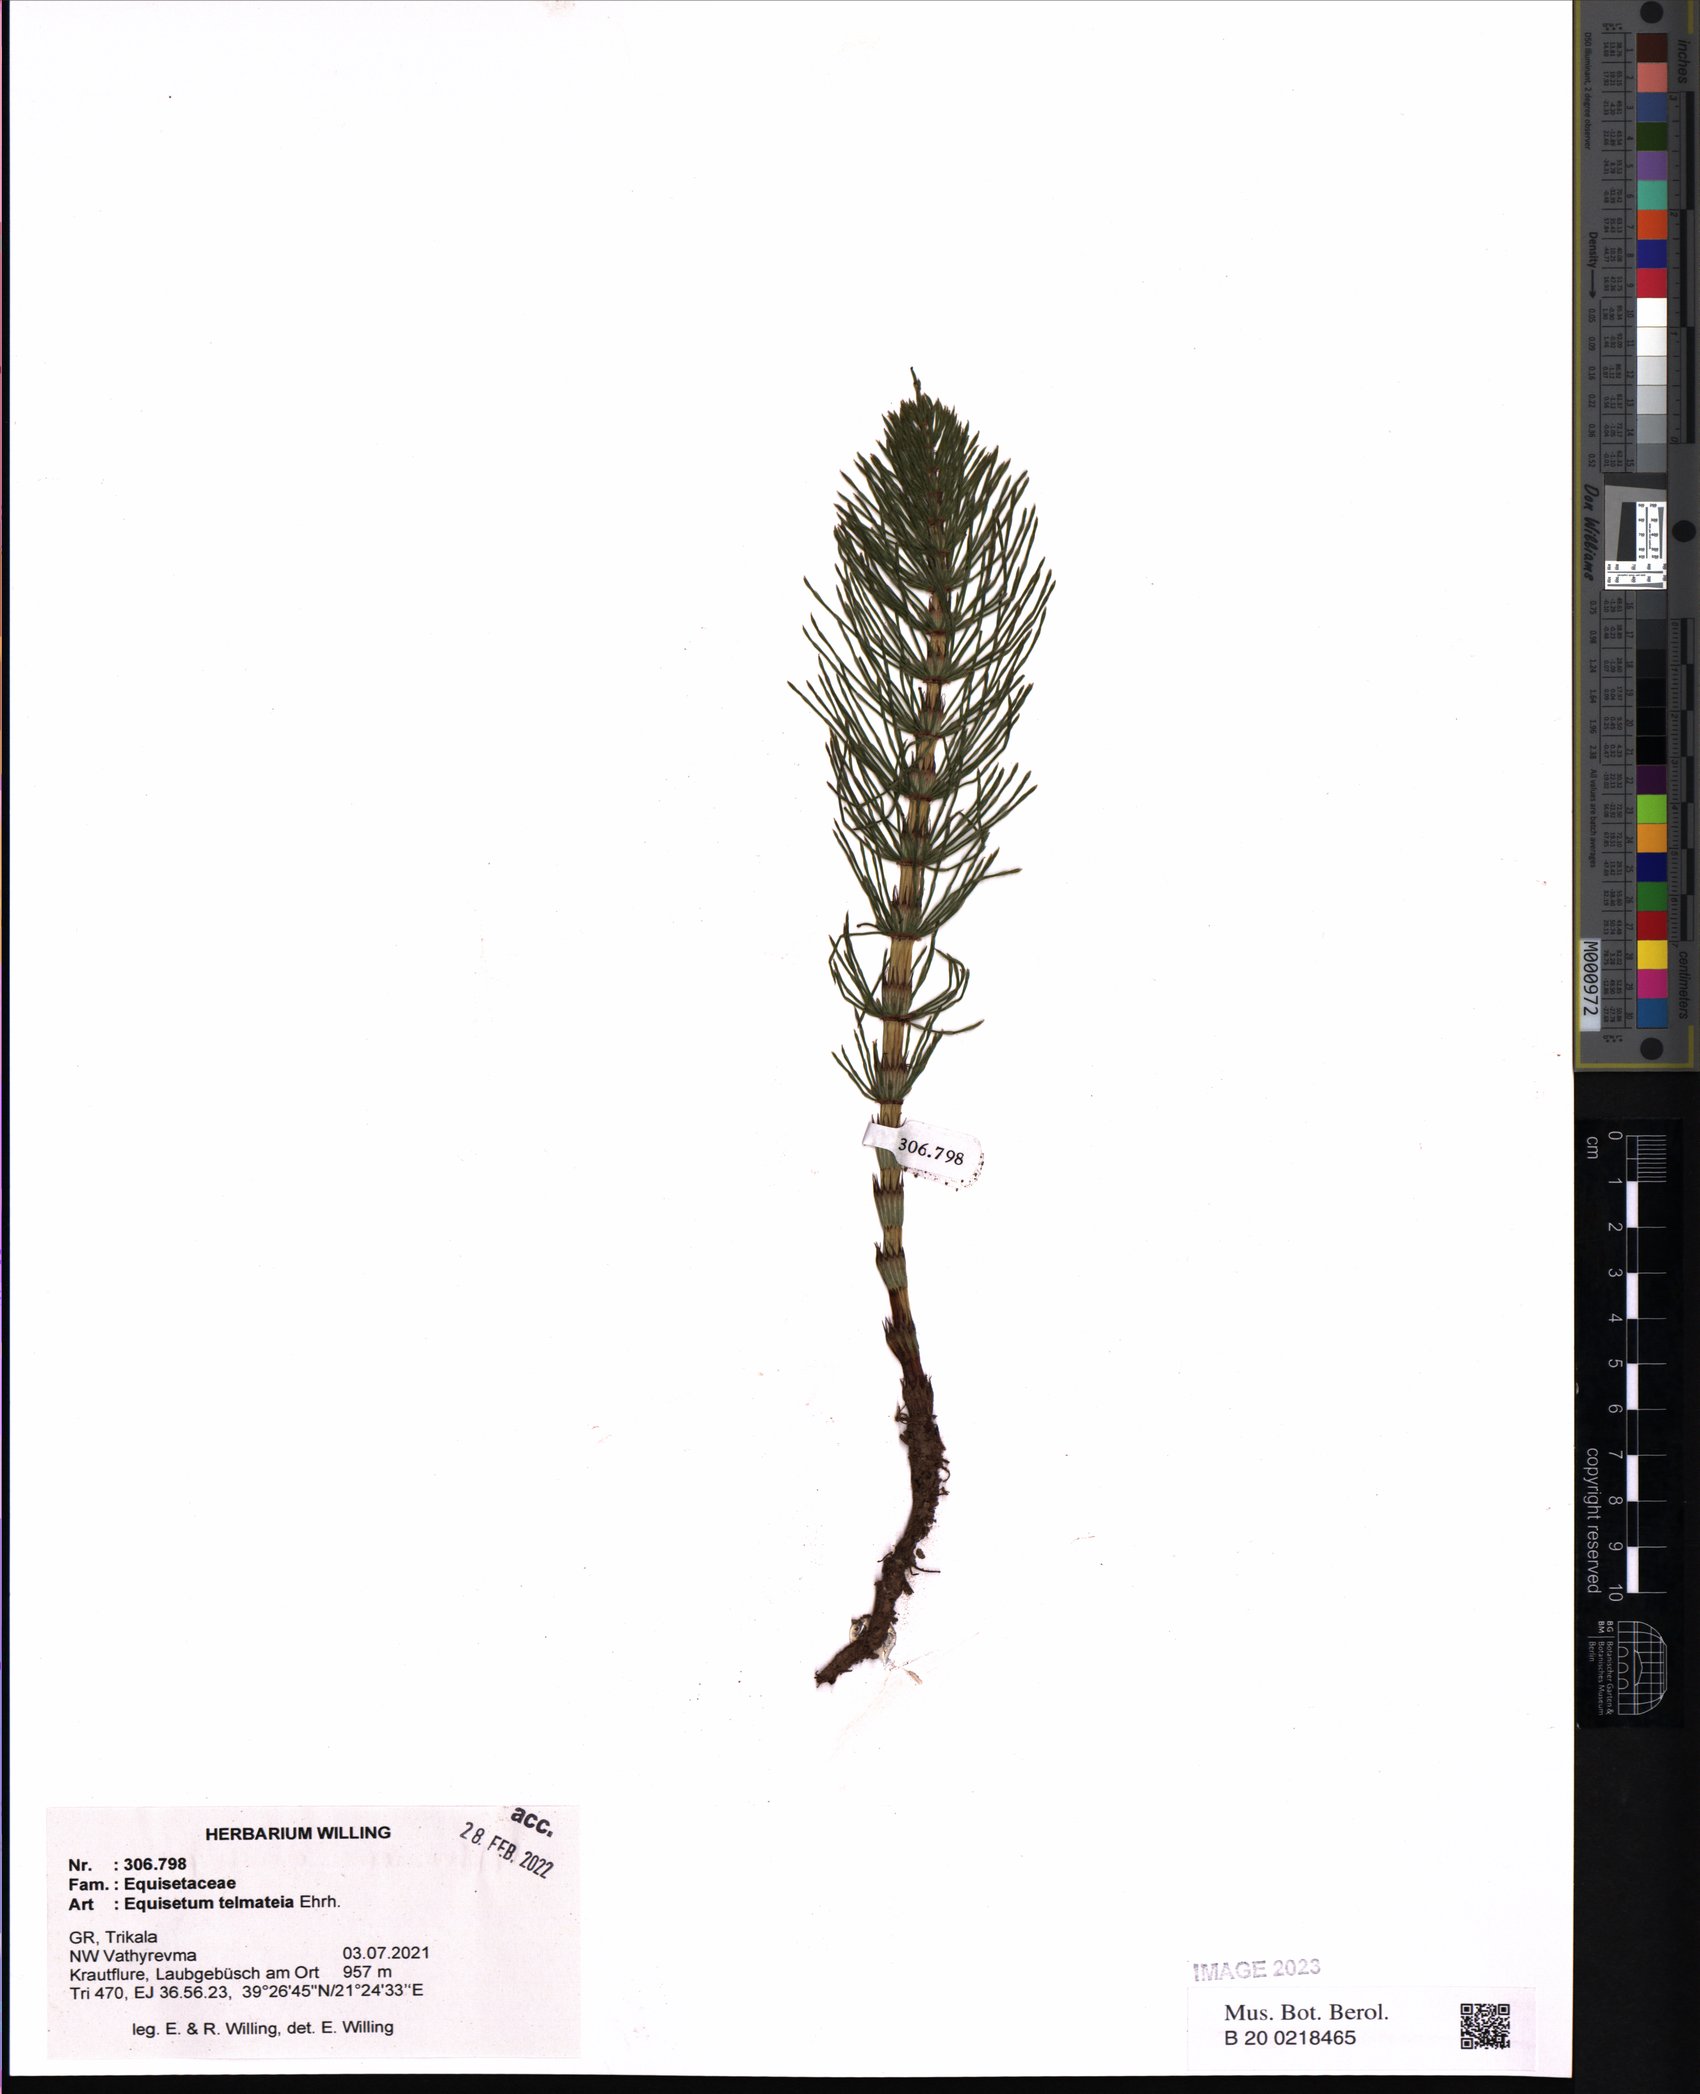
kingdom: Plantae
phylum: Tracheophyta
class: Polypodiopsida
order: Equisetales
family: Equisetaceae
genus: Equisetum
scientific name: Equisetum telmateia
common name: Great horsetail
